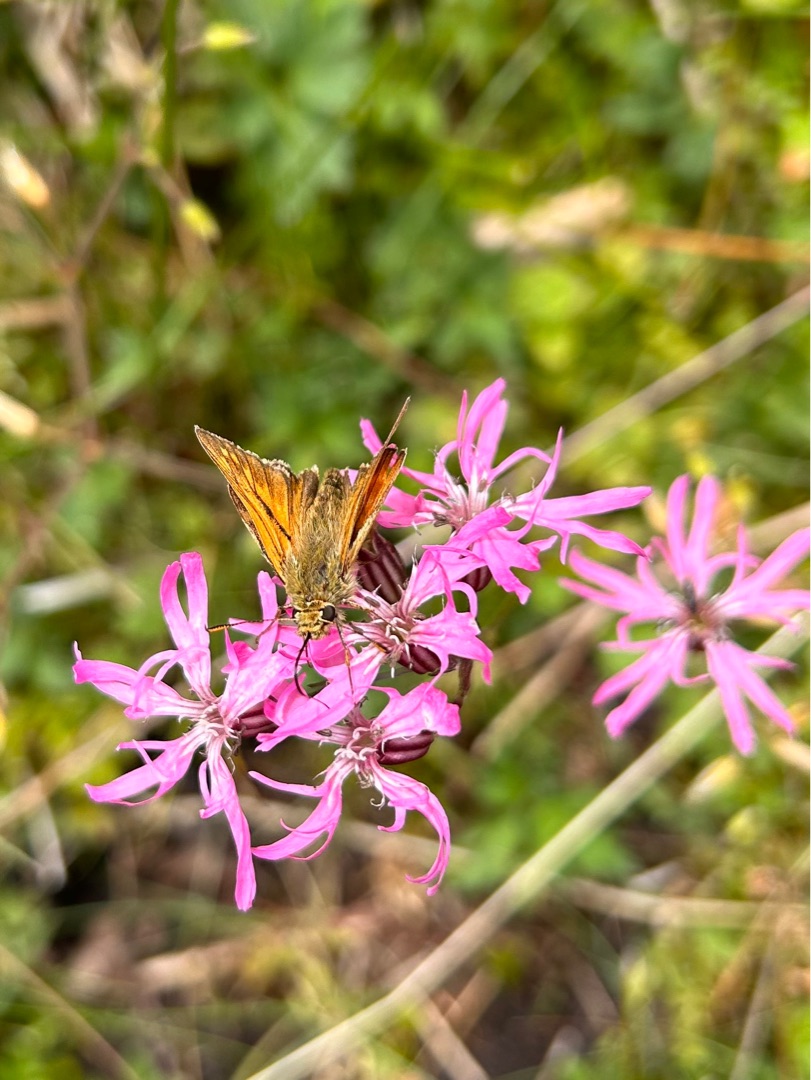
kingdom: Animalia
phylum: Arthropoda
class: Insecta
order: Lepidoptera
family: Hesperiidae
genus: Ochlodes
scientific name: Ochlodes venata
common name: Stor bredpande
